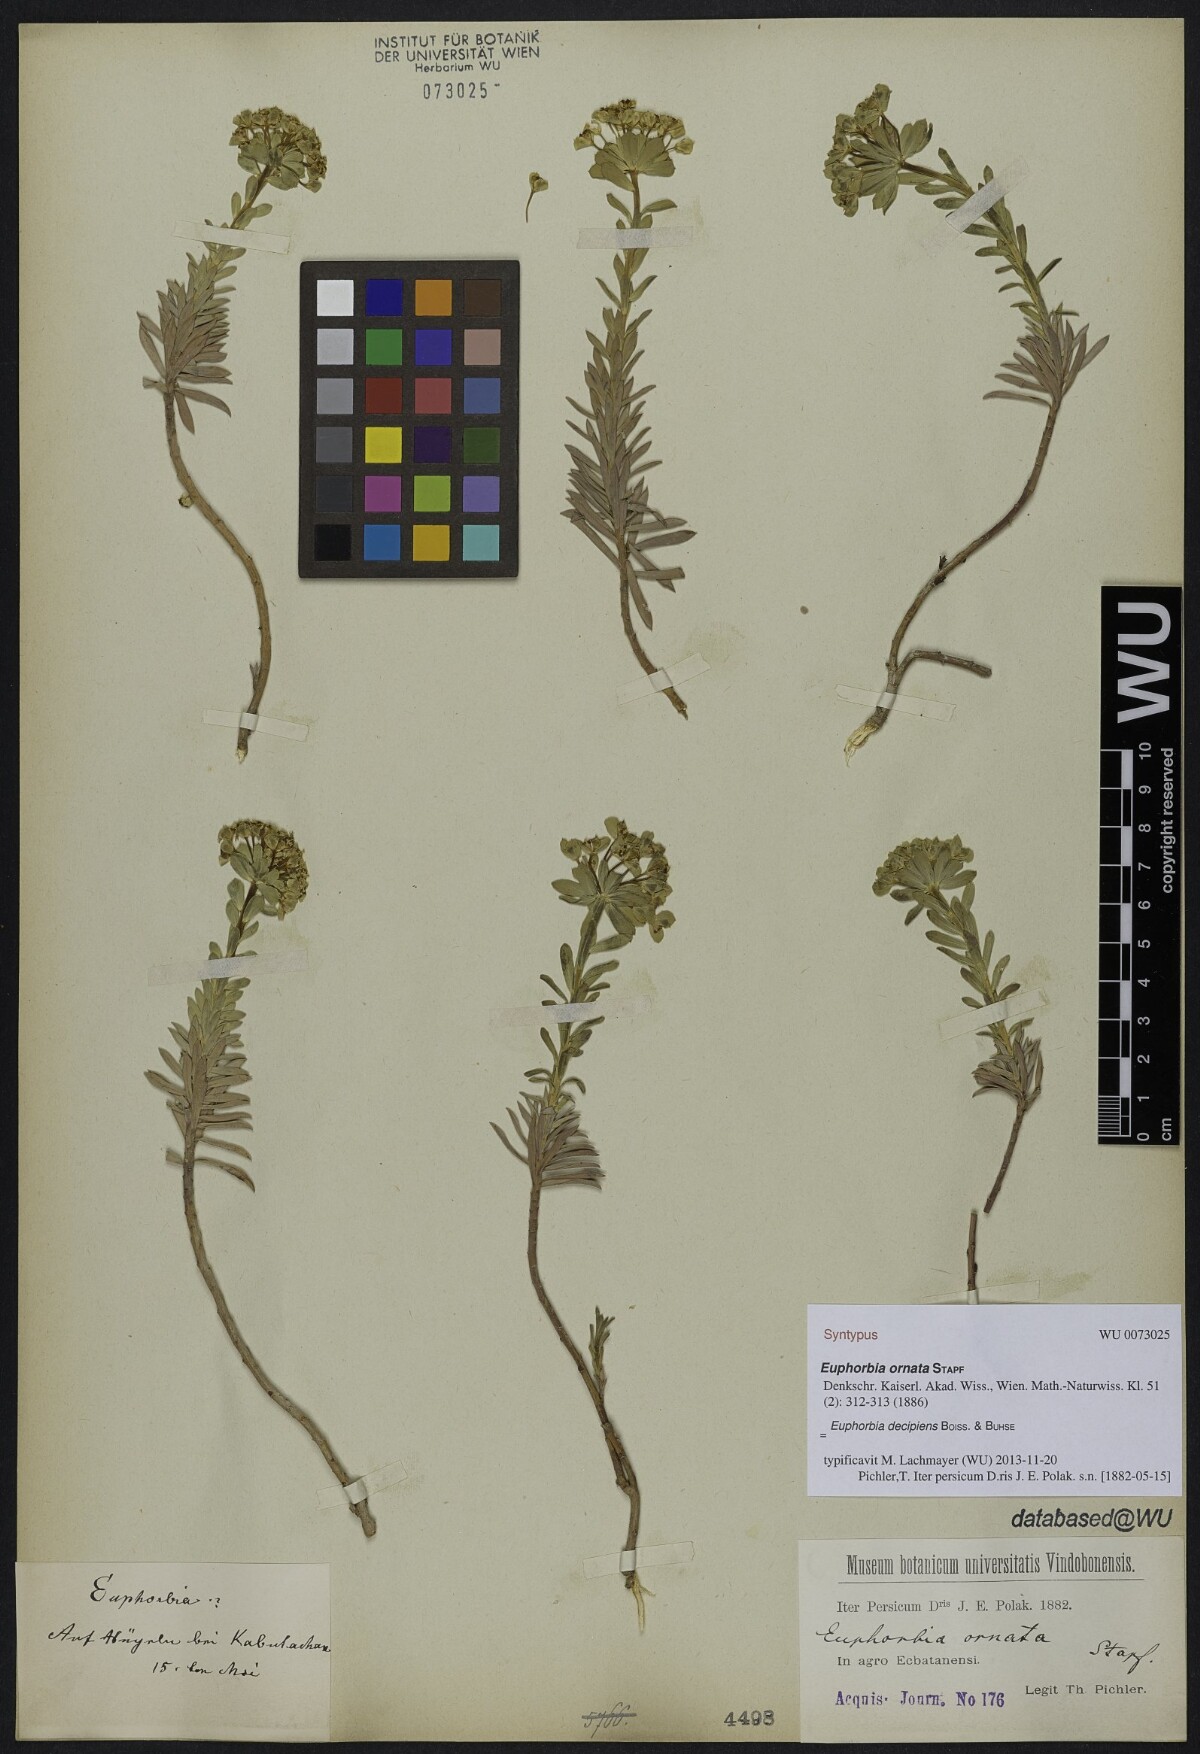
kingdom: Plantae
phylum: Tracheophyta
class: Magnoliopsida
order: Malpighiales
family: Euphorbiaceae
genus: Euphorbia
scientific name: Euphorbia polycaulis
